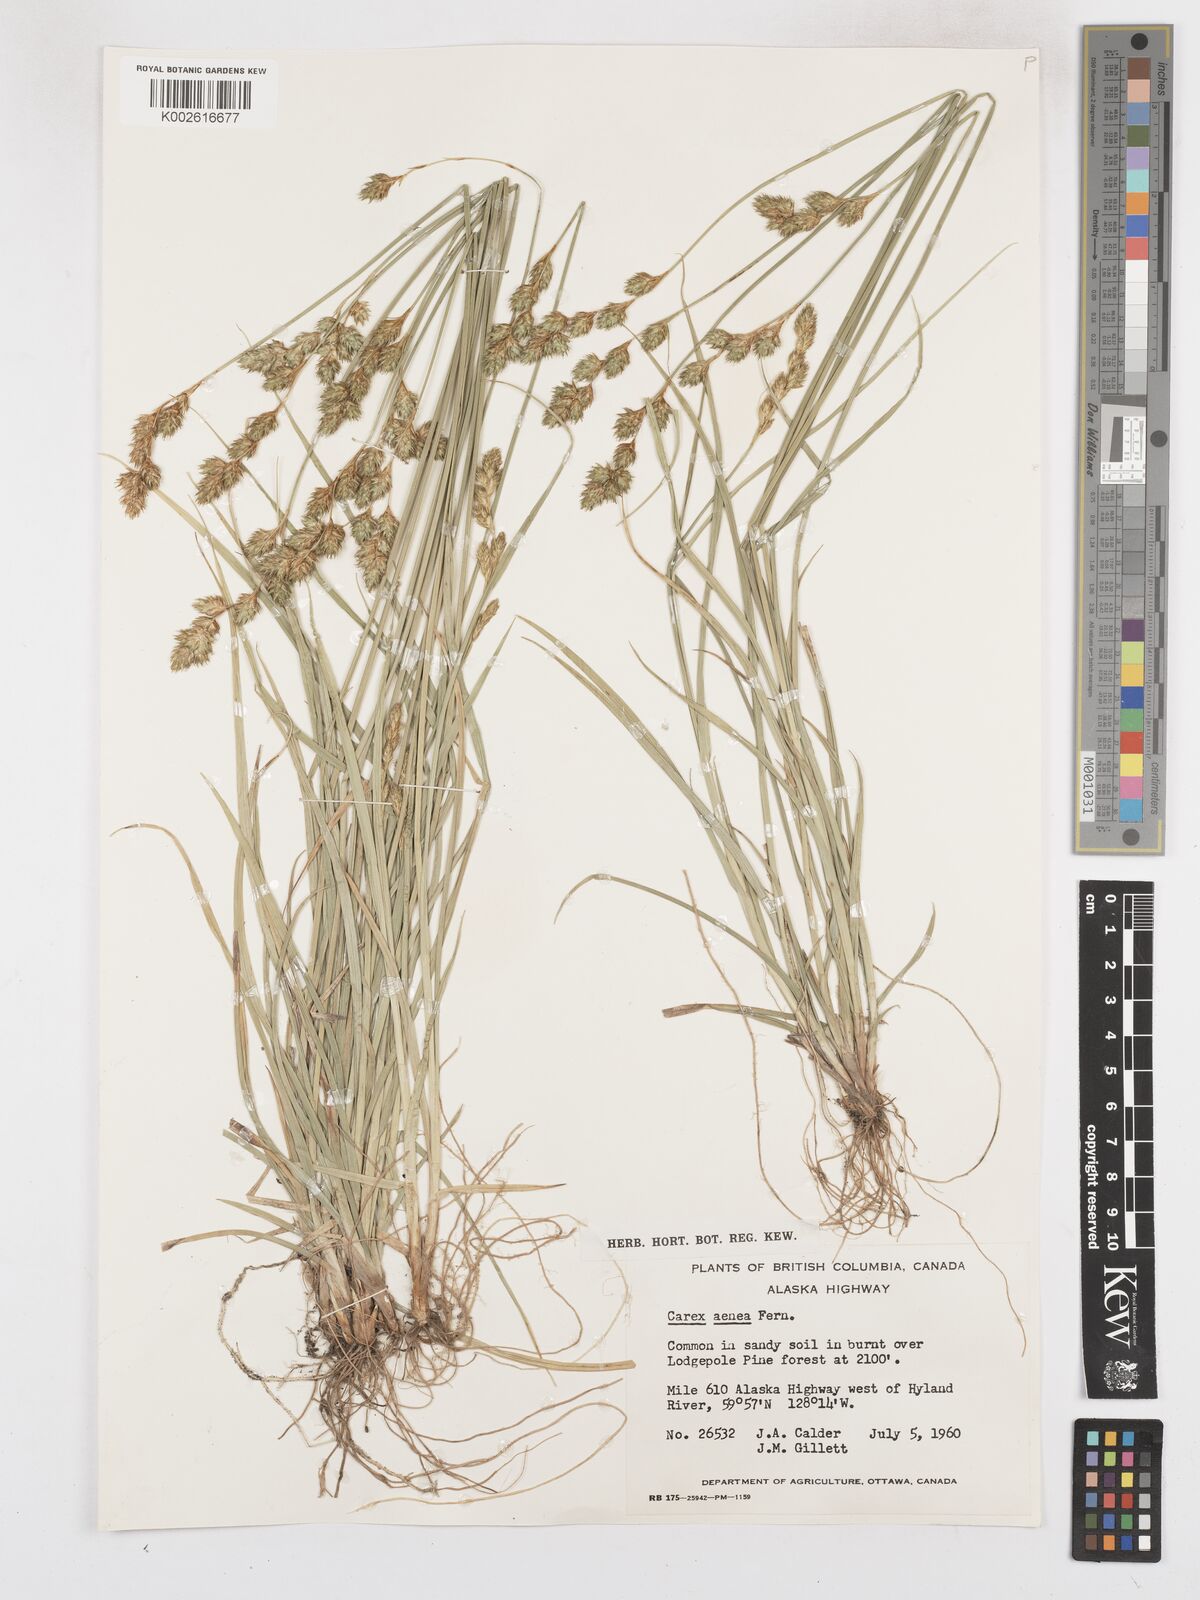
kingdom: Plantae
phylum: Tracheophyta
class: Liliopsida
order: Poales
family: Cyperaceae
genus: Carex
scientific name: Carex foenea
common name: Bronze sedge
